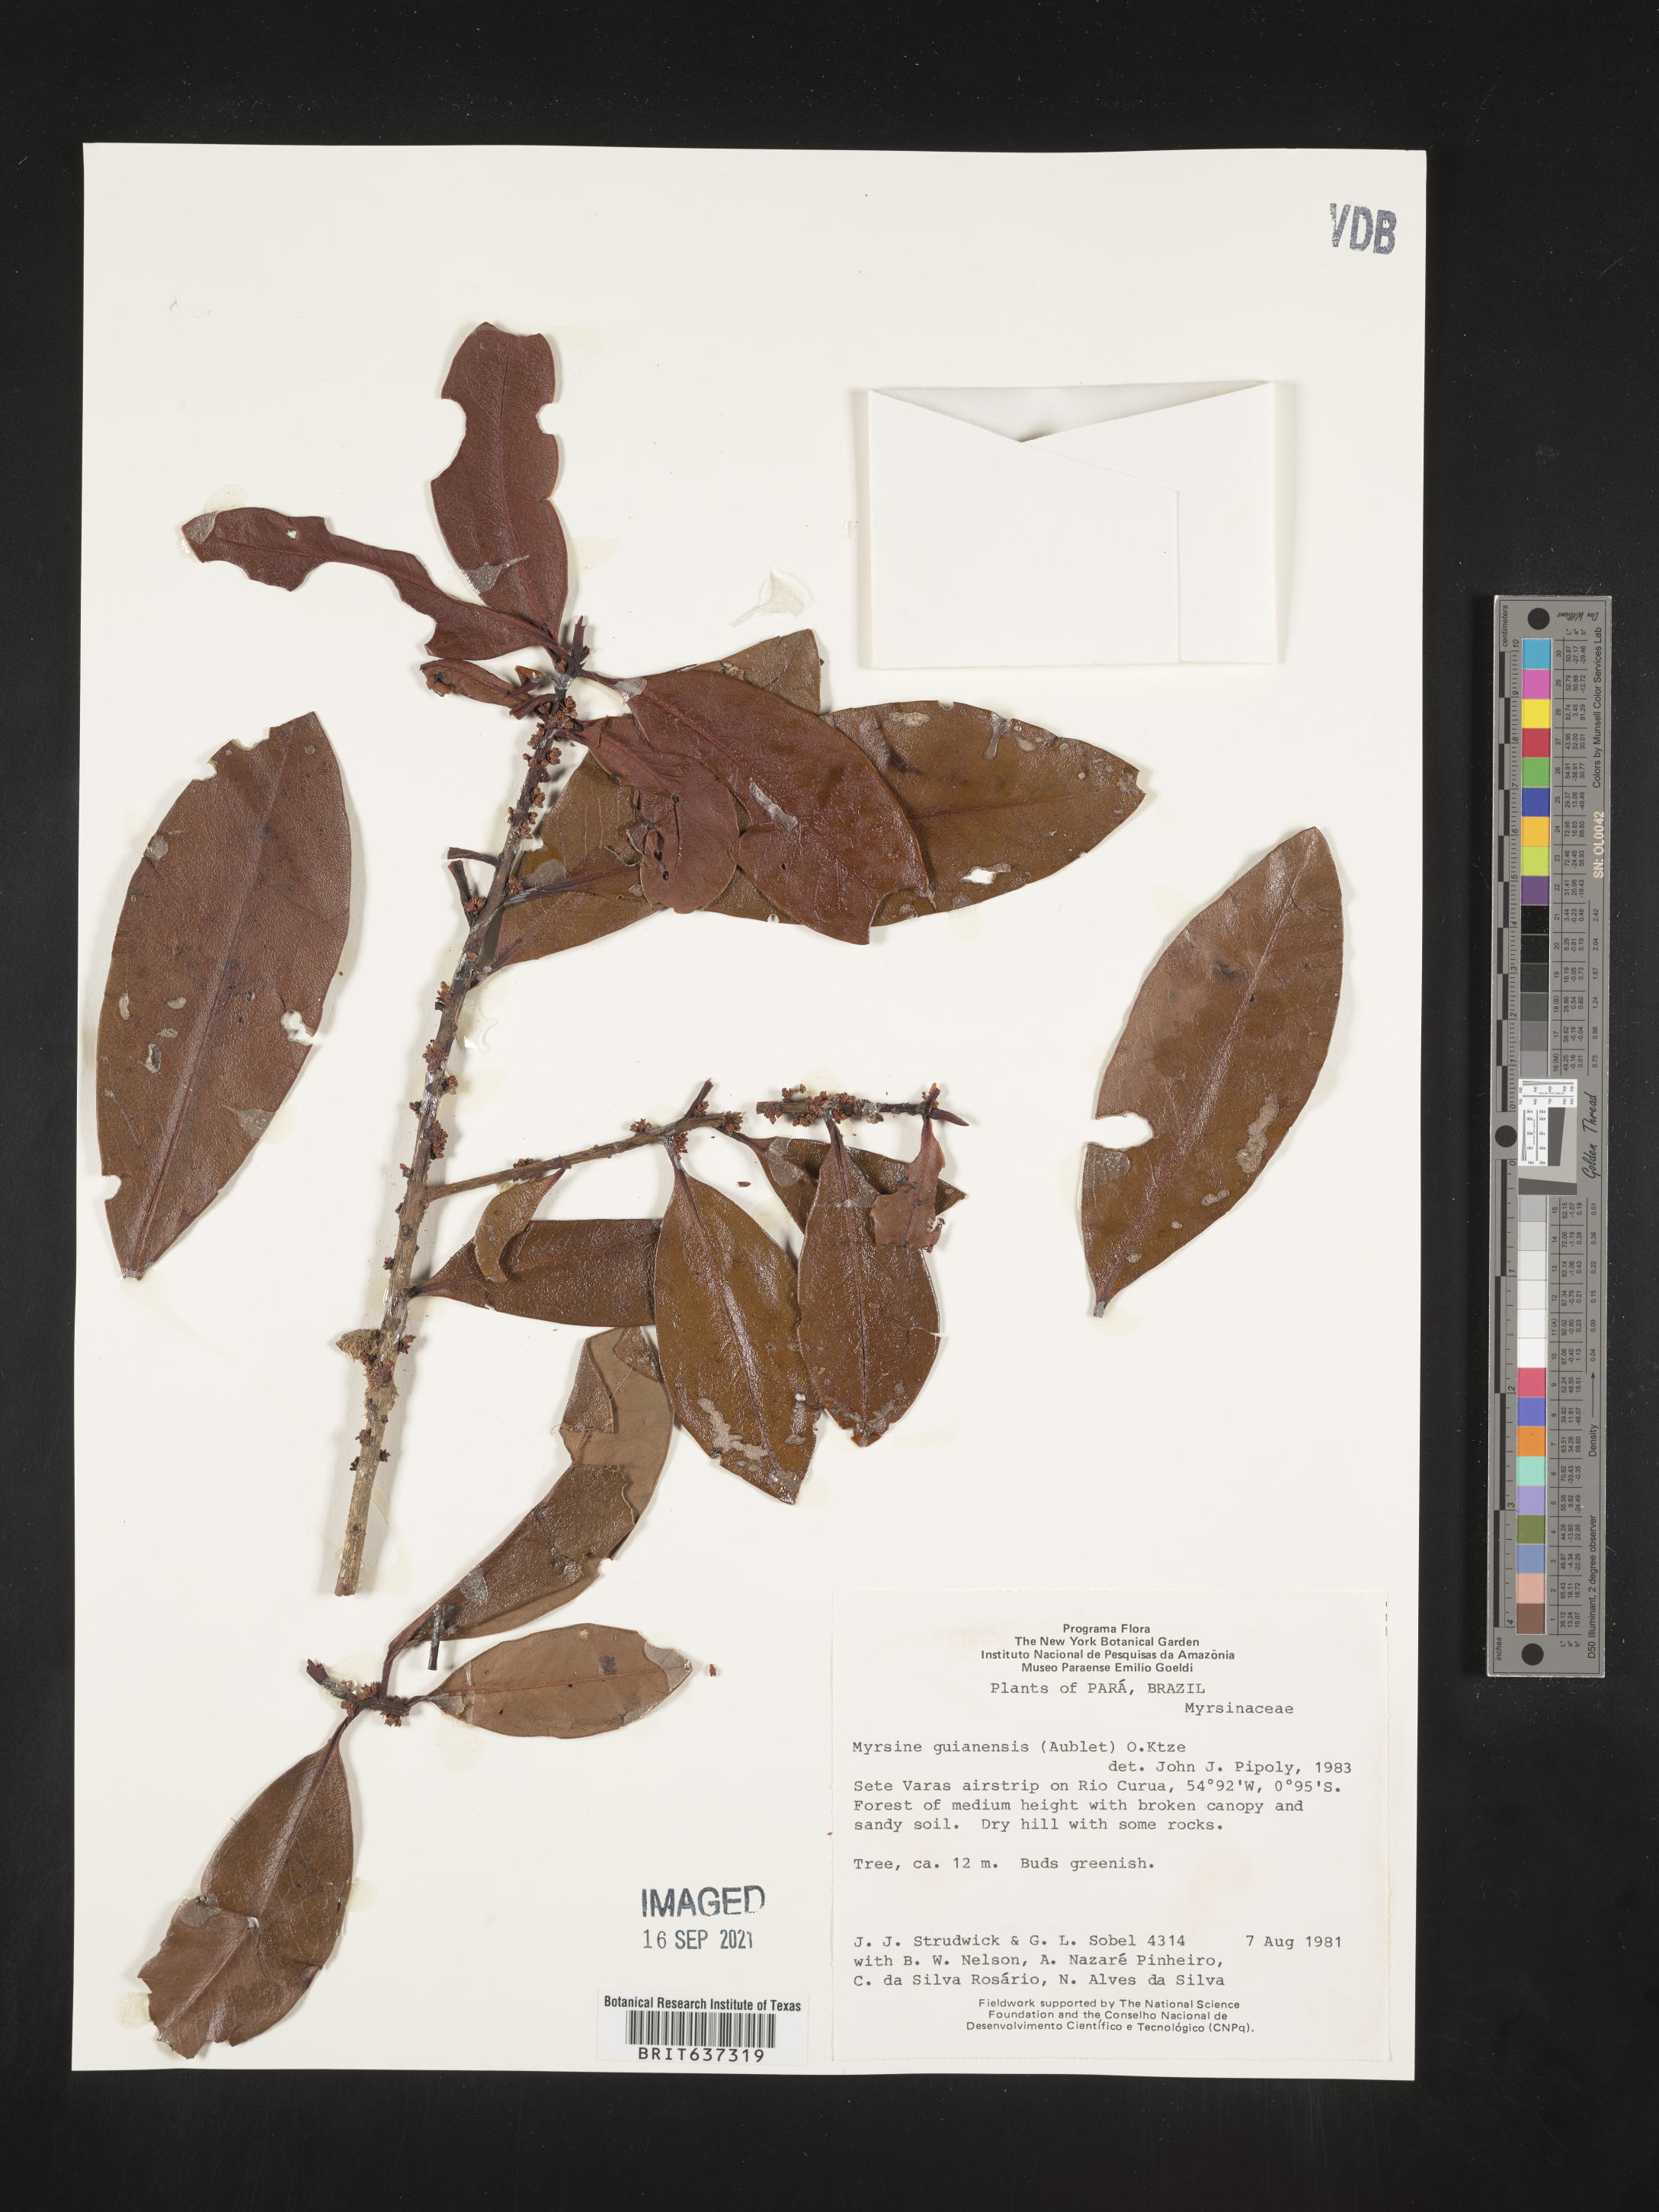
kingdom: Plantae
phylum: Tracheophyta
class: Magnoliopsida
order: Ericales
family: Primulaceae
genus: Myrsine
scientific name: Myrsine
